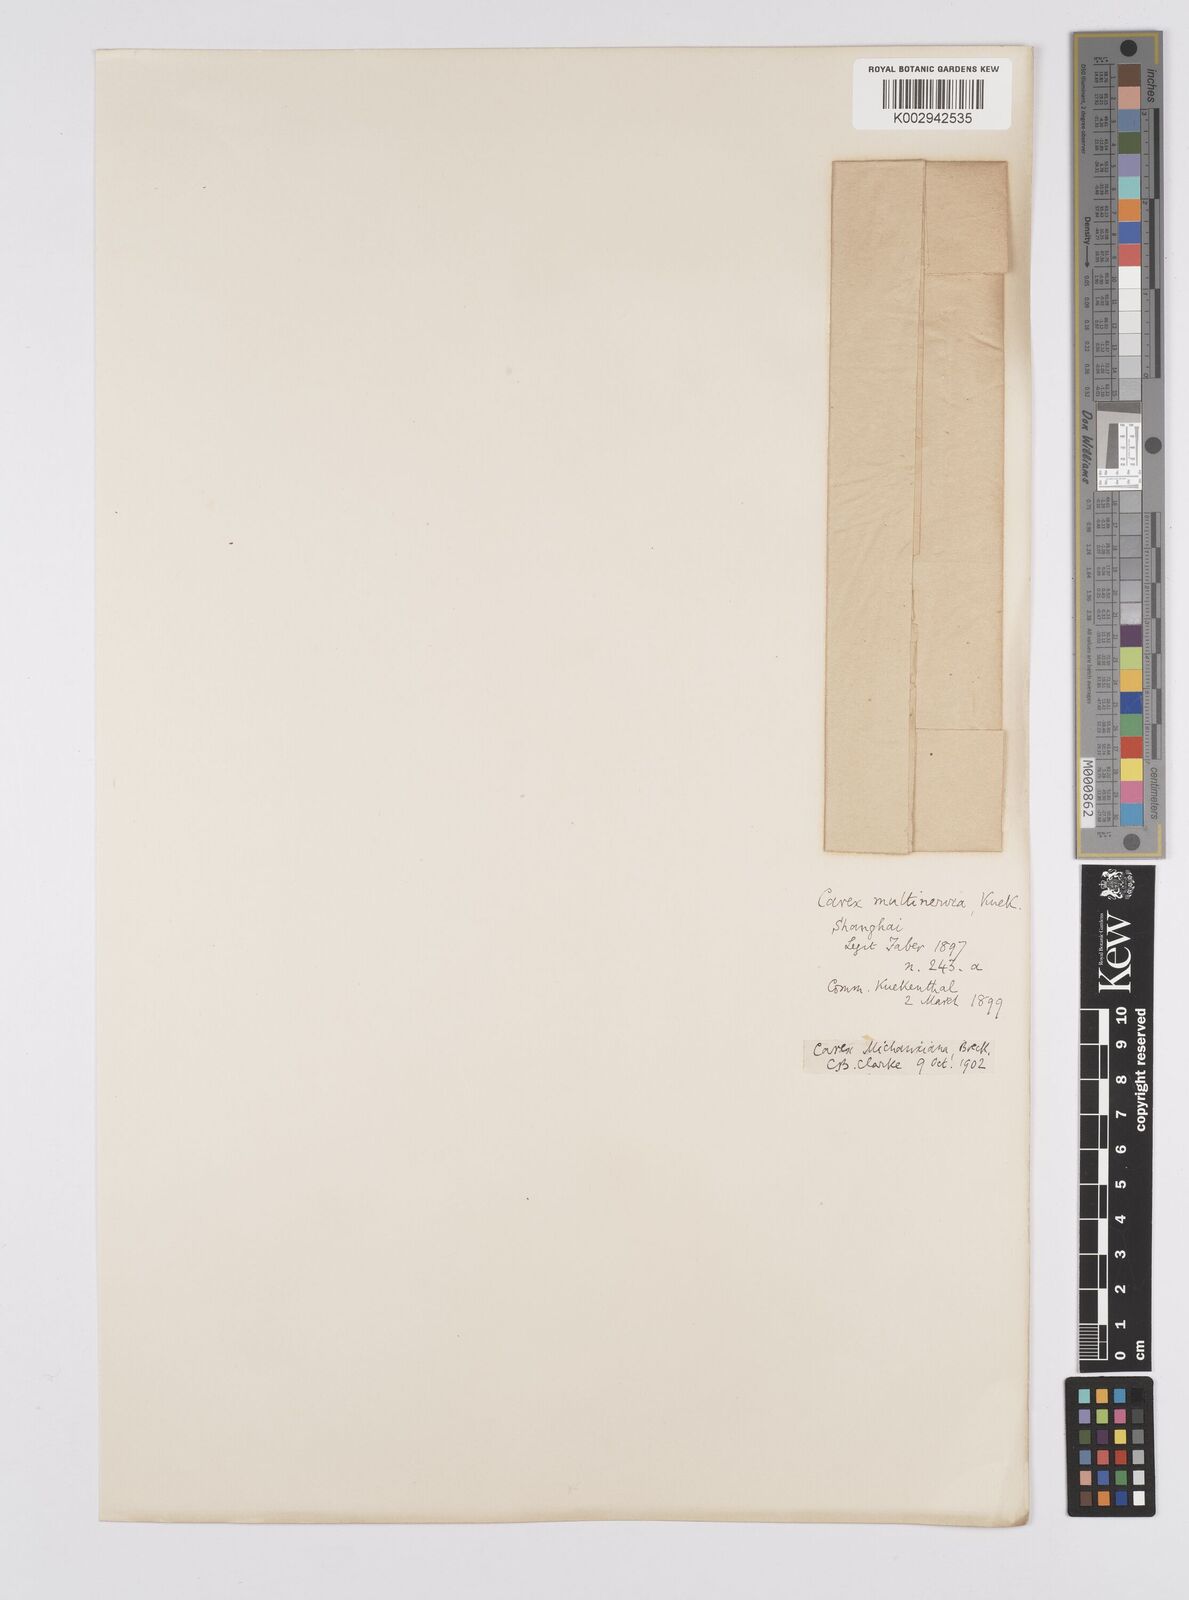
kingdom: Plantae
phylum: Tracheophyta
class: Liliopsida
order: Poales
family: Cyperaceae
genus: Carex
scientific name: Carex michauxiana
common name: Michaux's sedge
